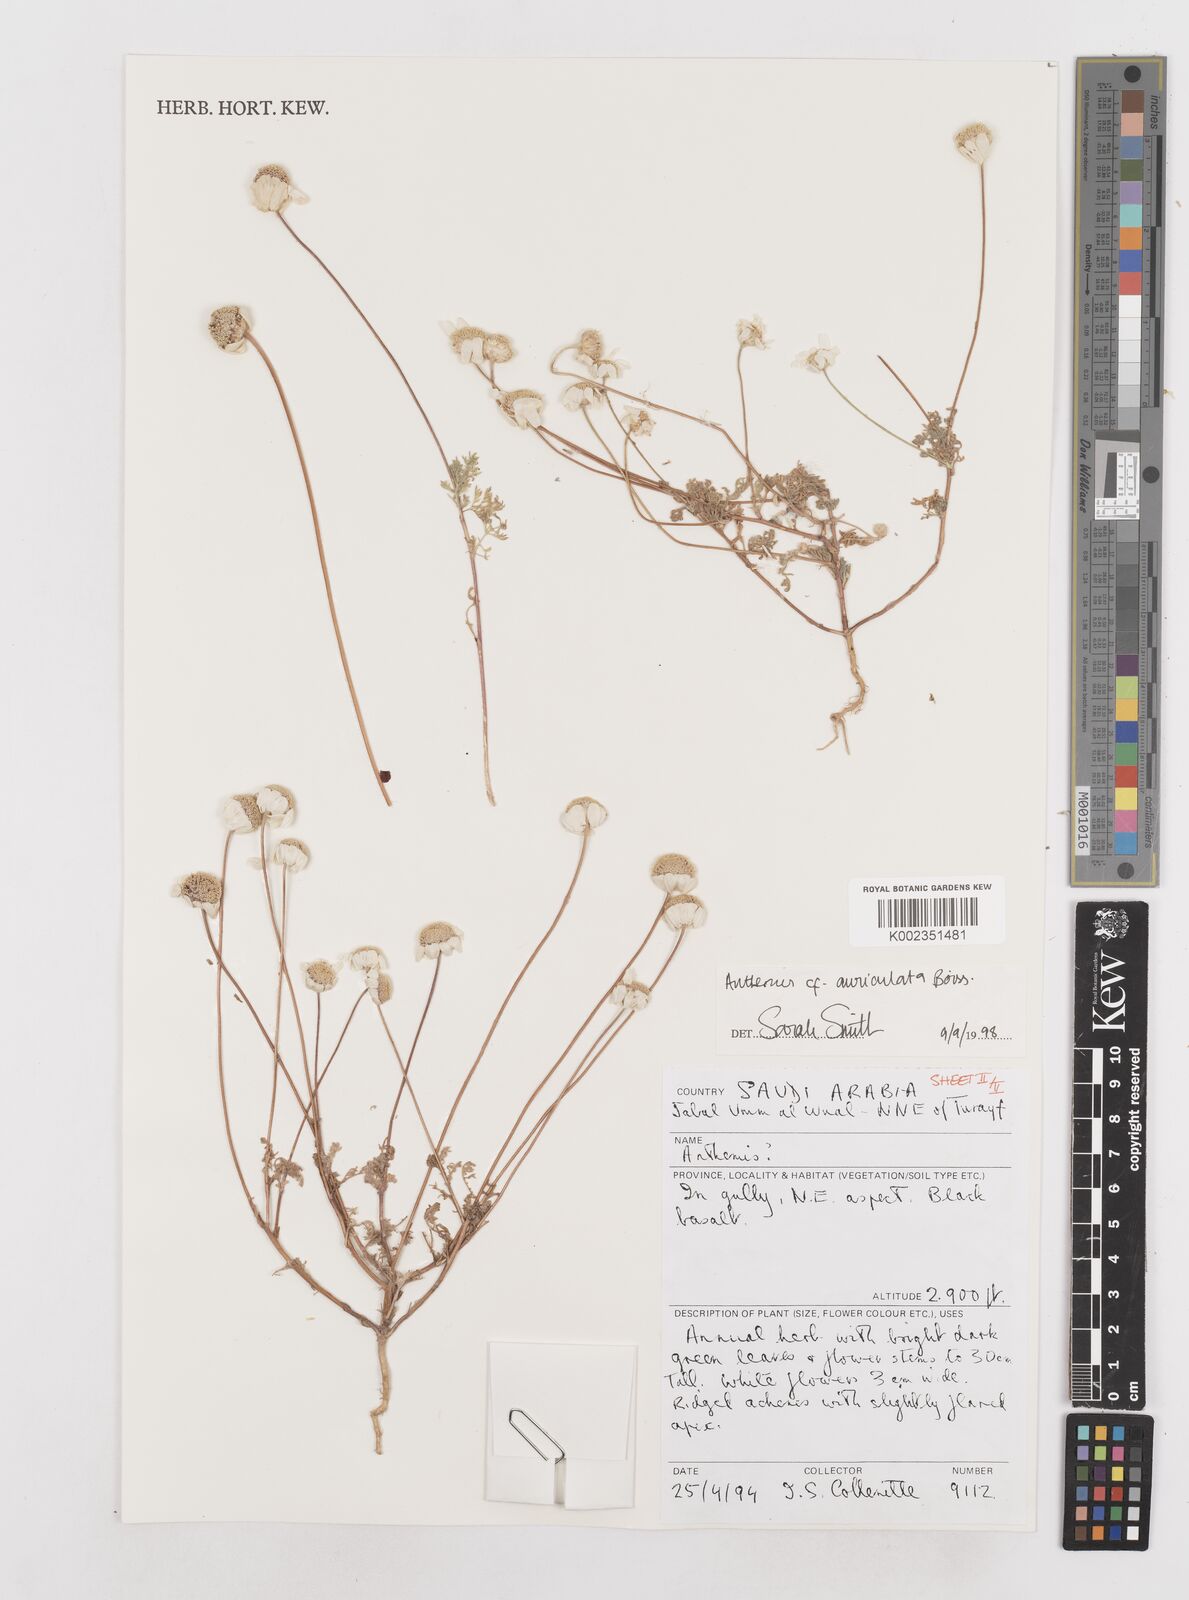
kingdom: Plantae
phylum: Tracheophyta
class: Magnoliopsida
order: Asterales
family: Asteraceae
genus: Anthemis
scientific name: Anthemis auriculata
